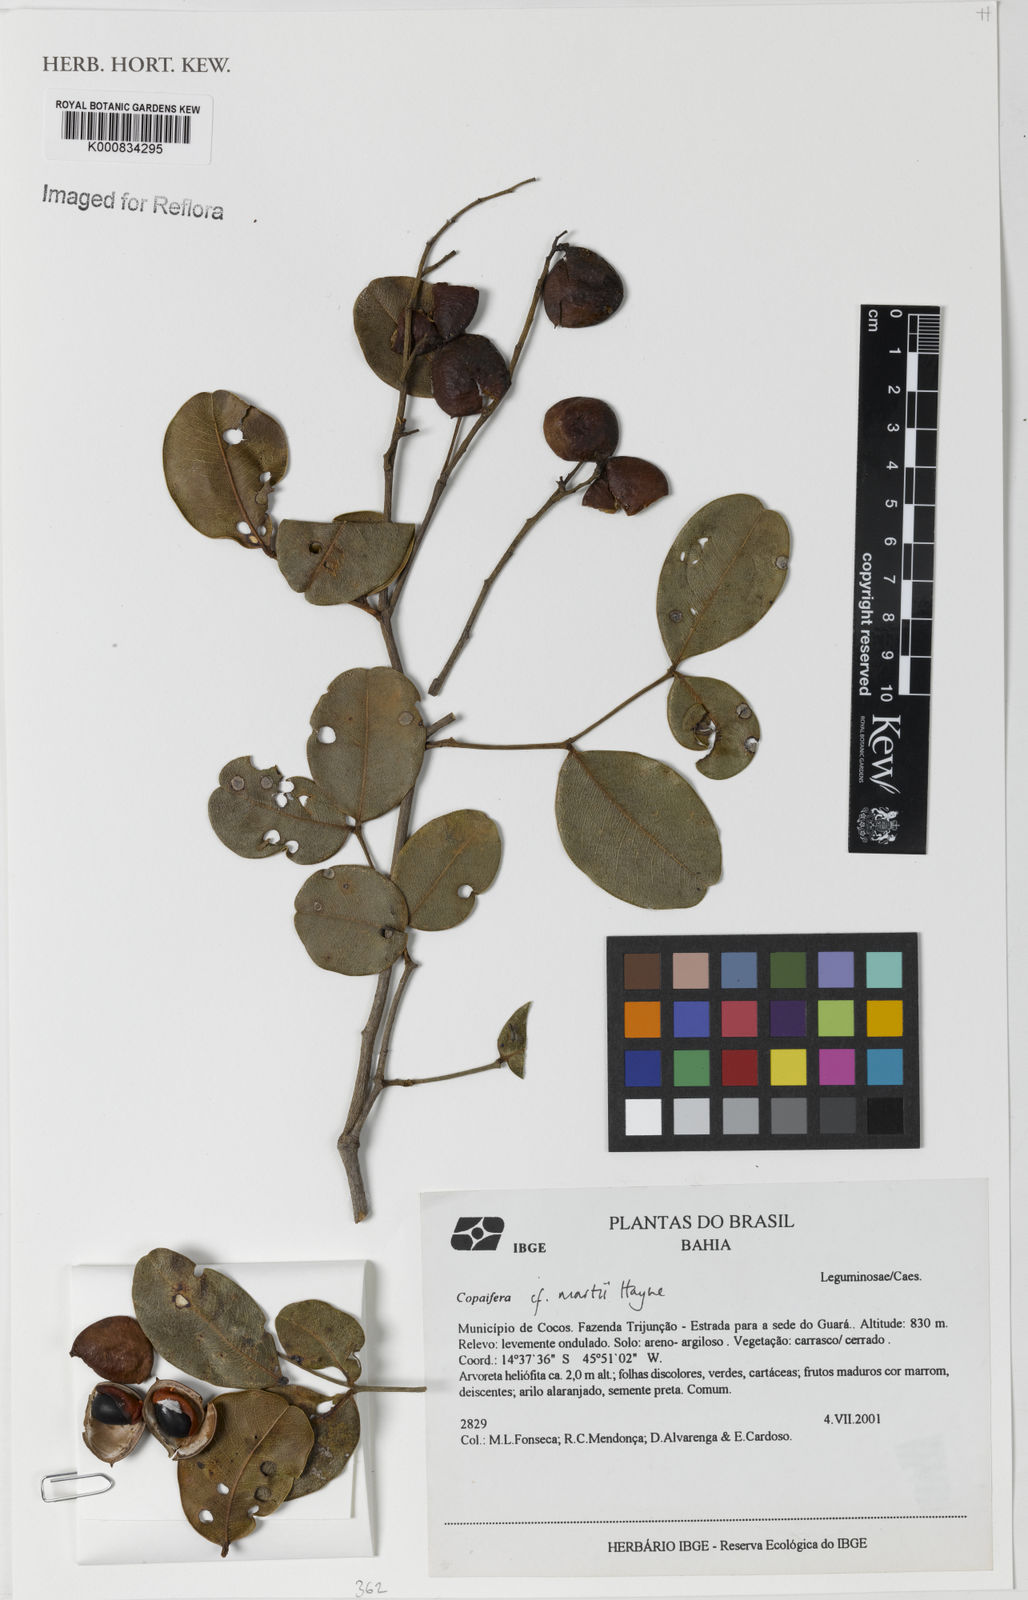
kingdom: Plantae
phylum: Tracheophyta
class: Magnoliopsida
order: Fabales
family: Fabaceae
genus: Copaifera
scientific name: Copaifera martii
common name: Copaiba
